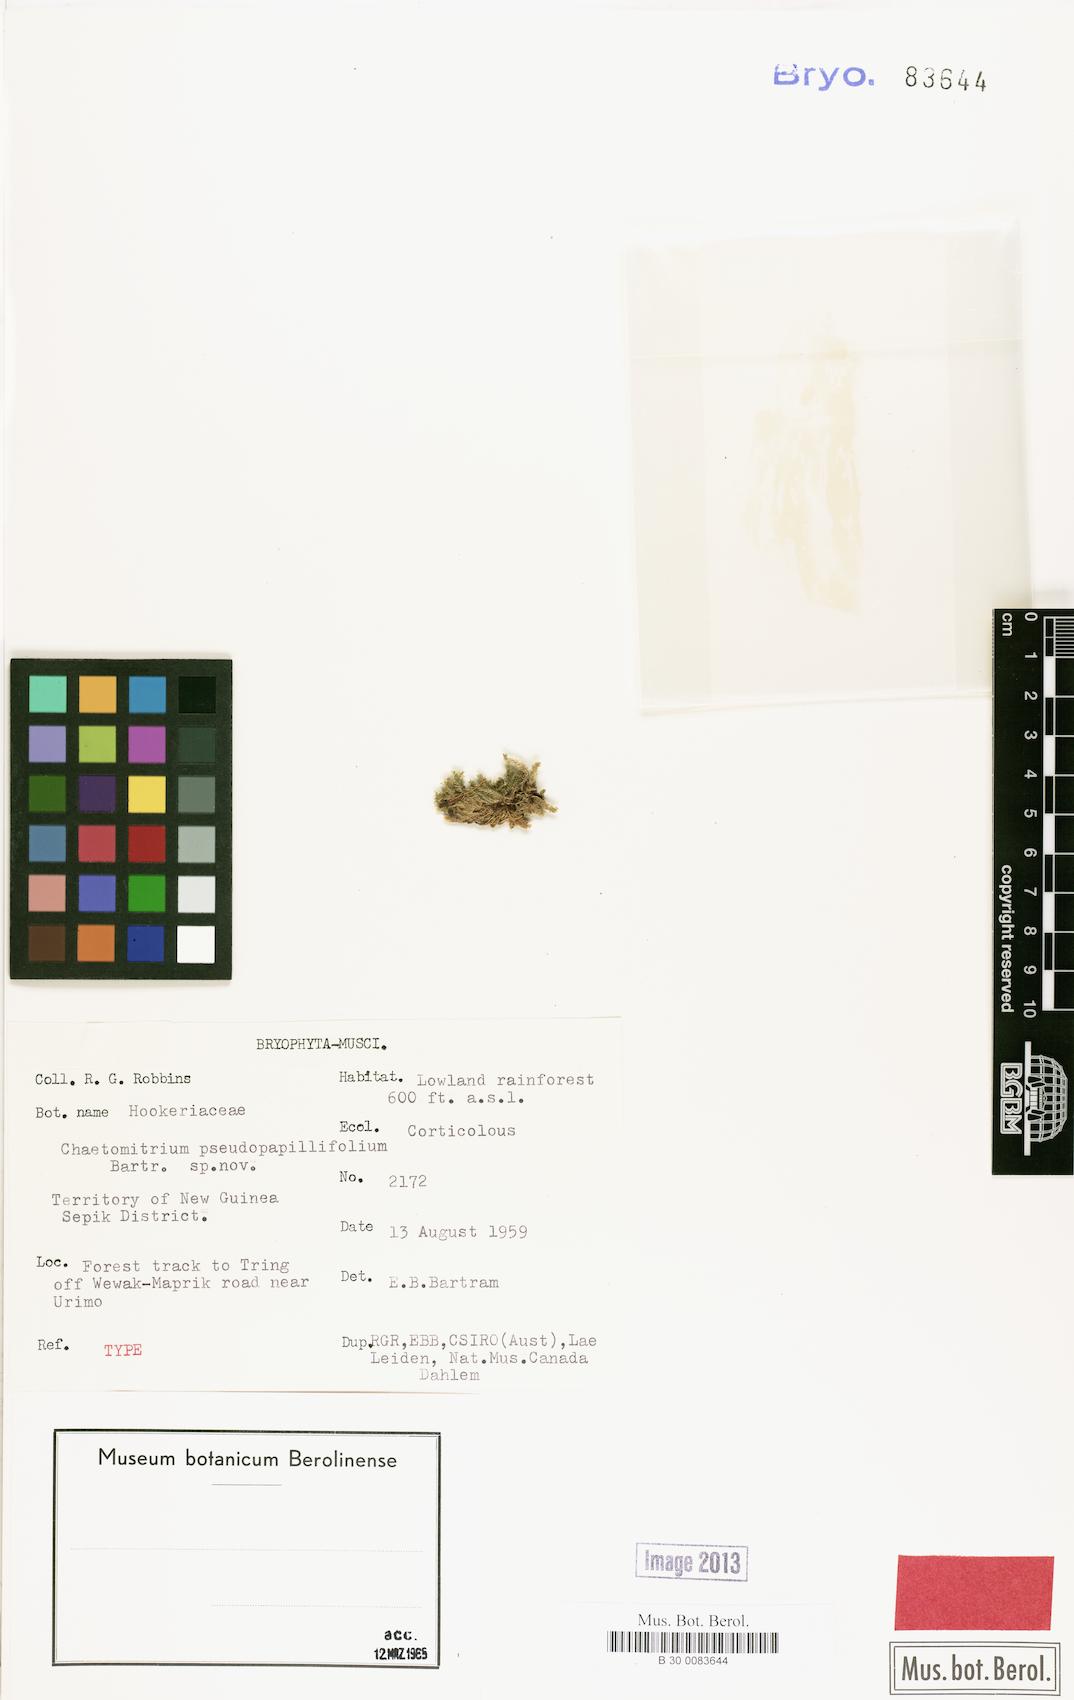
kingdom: Plantae
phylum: Bryophyta
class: Bryopsida
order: Hypnales
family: Symphyodontaceae
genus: Chaetomitrium
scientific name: Chaetomitrium elegans
